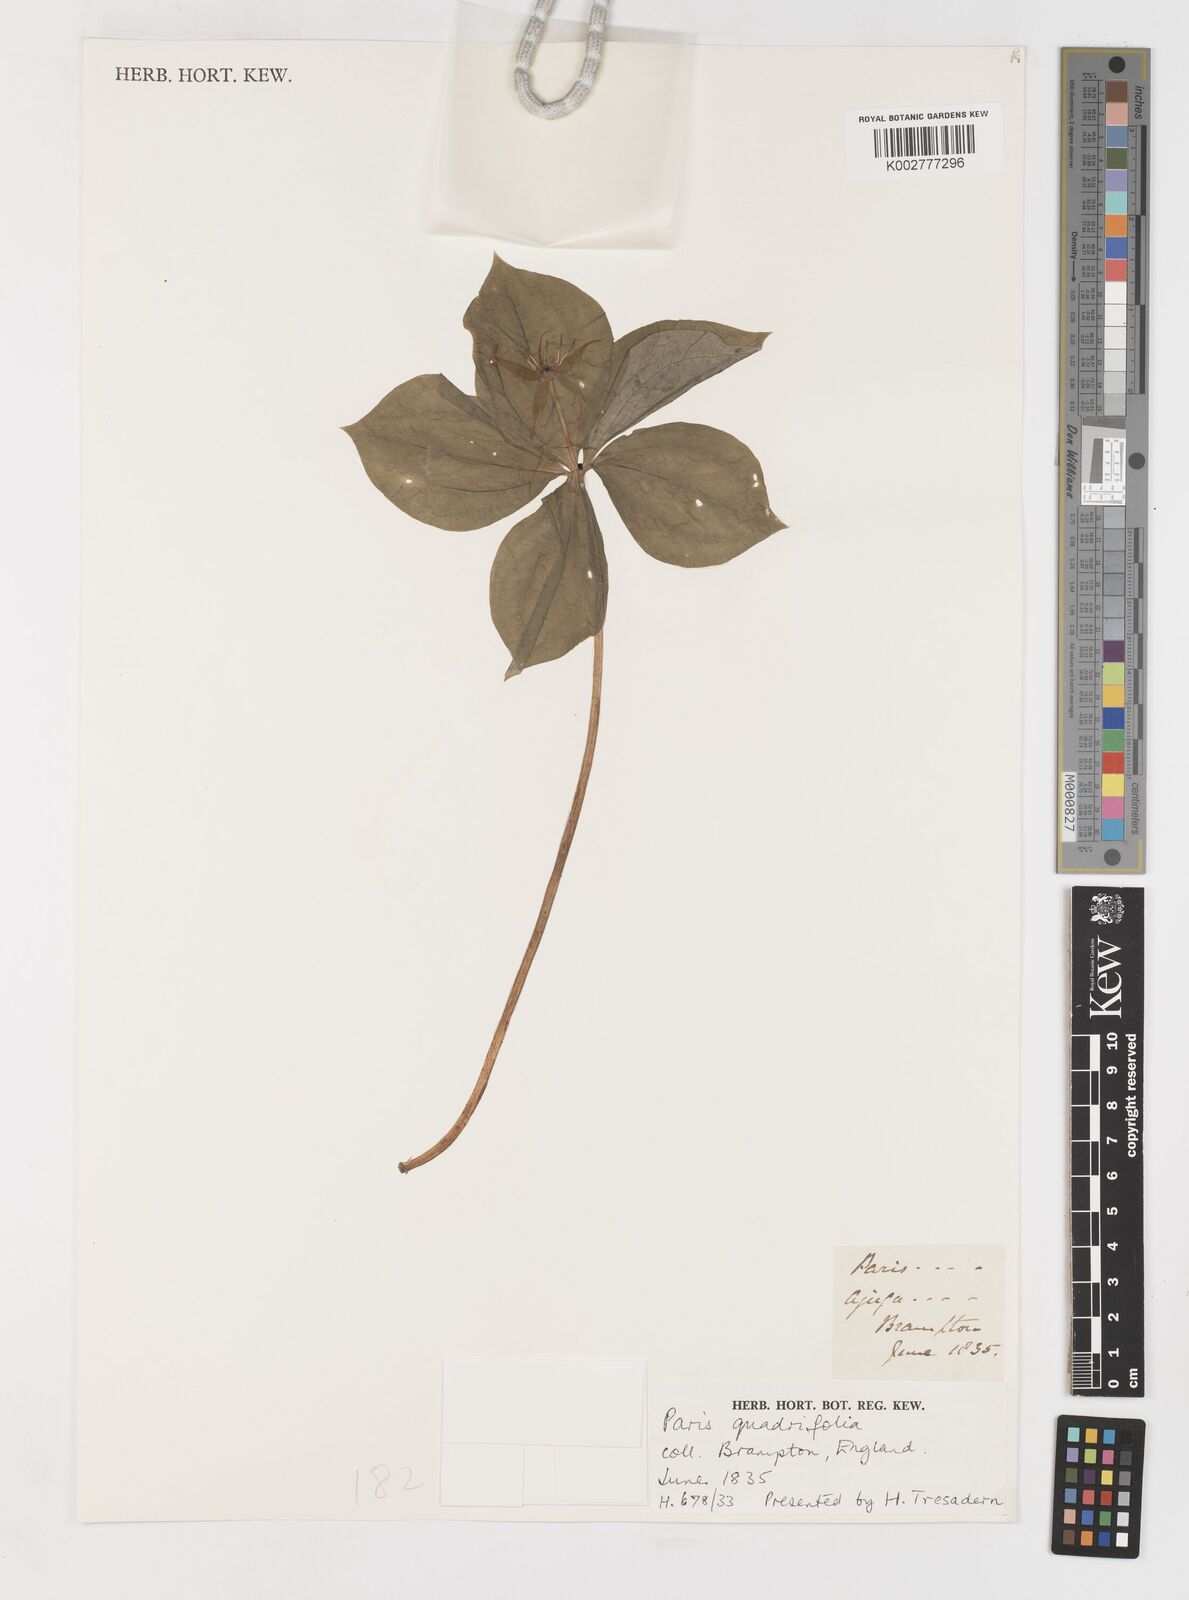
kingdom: Plantae
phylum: Tracheophyta
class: Liliopsida
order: Liliales
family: Melanthiaceae
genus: Paris
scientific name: Paris quadrifolia
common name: Herb-paris
